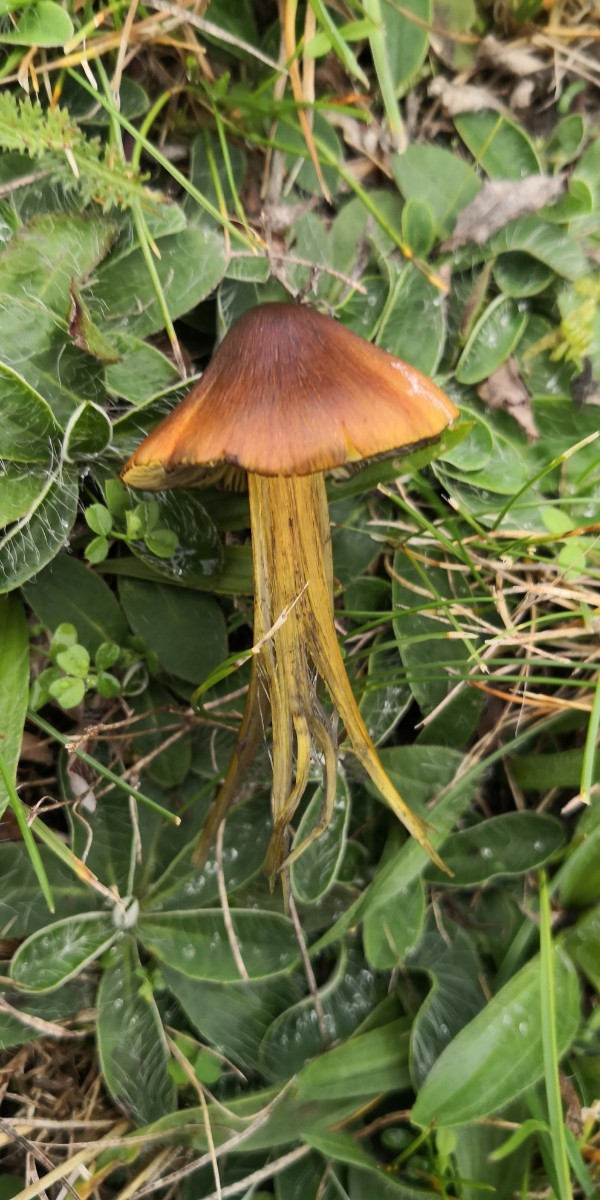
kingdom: Fungi
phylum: Basidiomycota
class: Agaricomycetes
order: Agaricales
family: Hygrophoraceae
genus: Hygrocybe
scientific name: Hygrocybe conica
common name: kegle-vokshat
